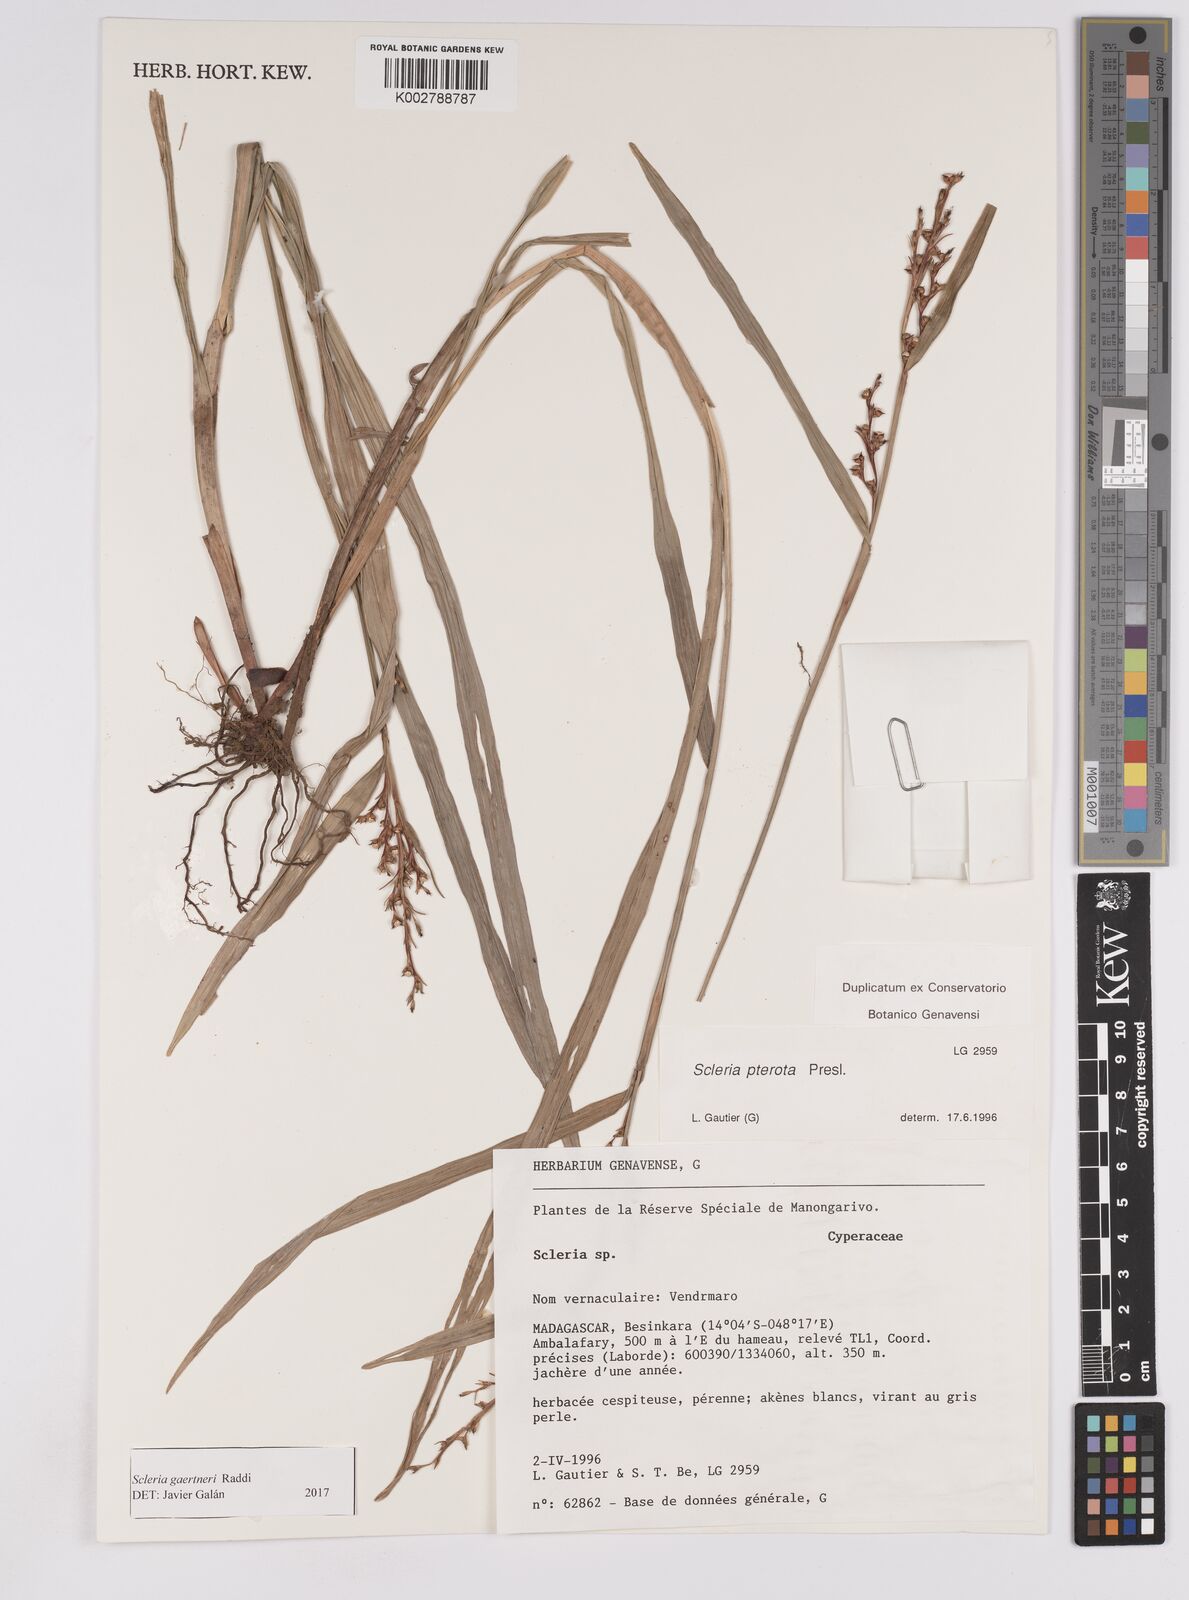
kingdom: Plantae
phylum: Tracheophyta
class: Liliopsida
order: Poales
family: Cyperaceae
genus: Scleria
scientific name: Scleria gaertneri
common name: Cortadera blanca
